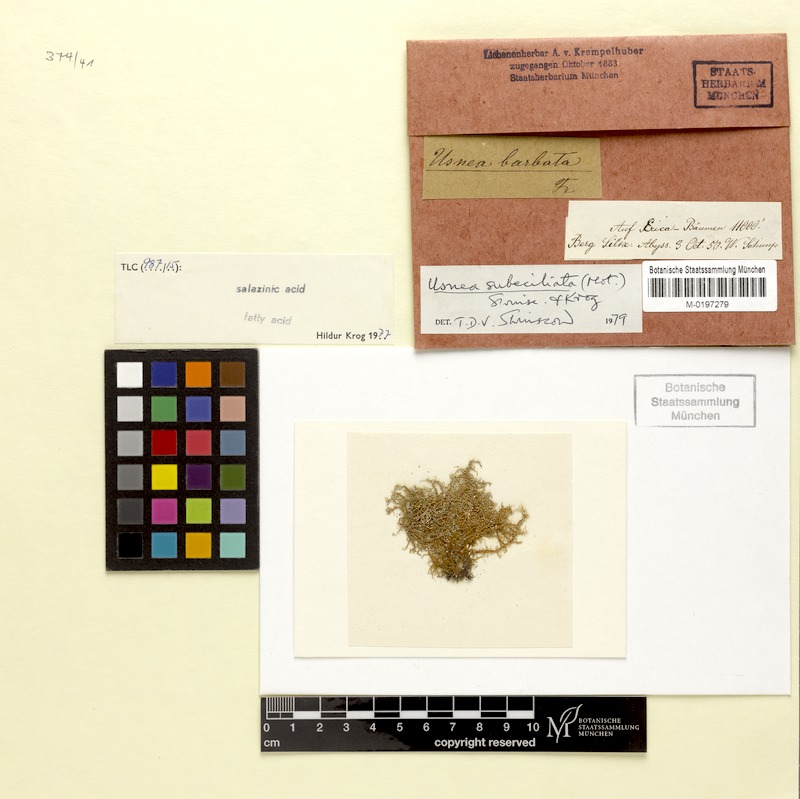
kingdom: Fungi
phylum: Ascomycota
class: Lecanoromycetes
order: Lecanorales
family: Parmeliaceae
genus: Usnea
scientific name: Usnea subeciliata
